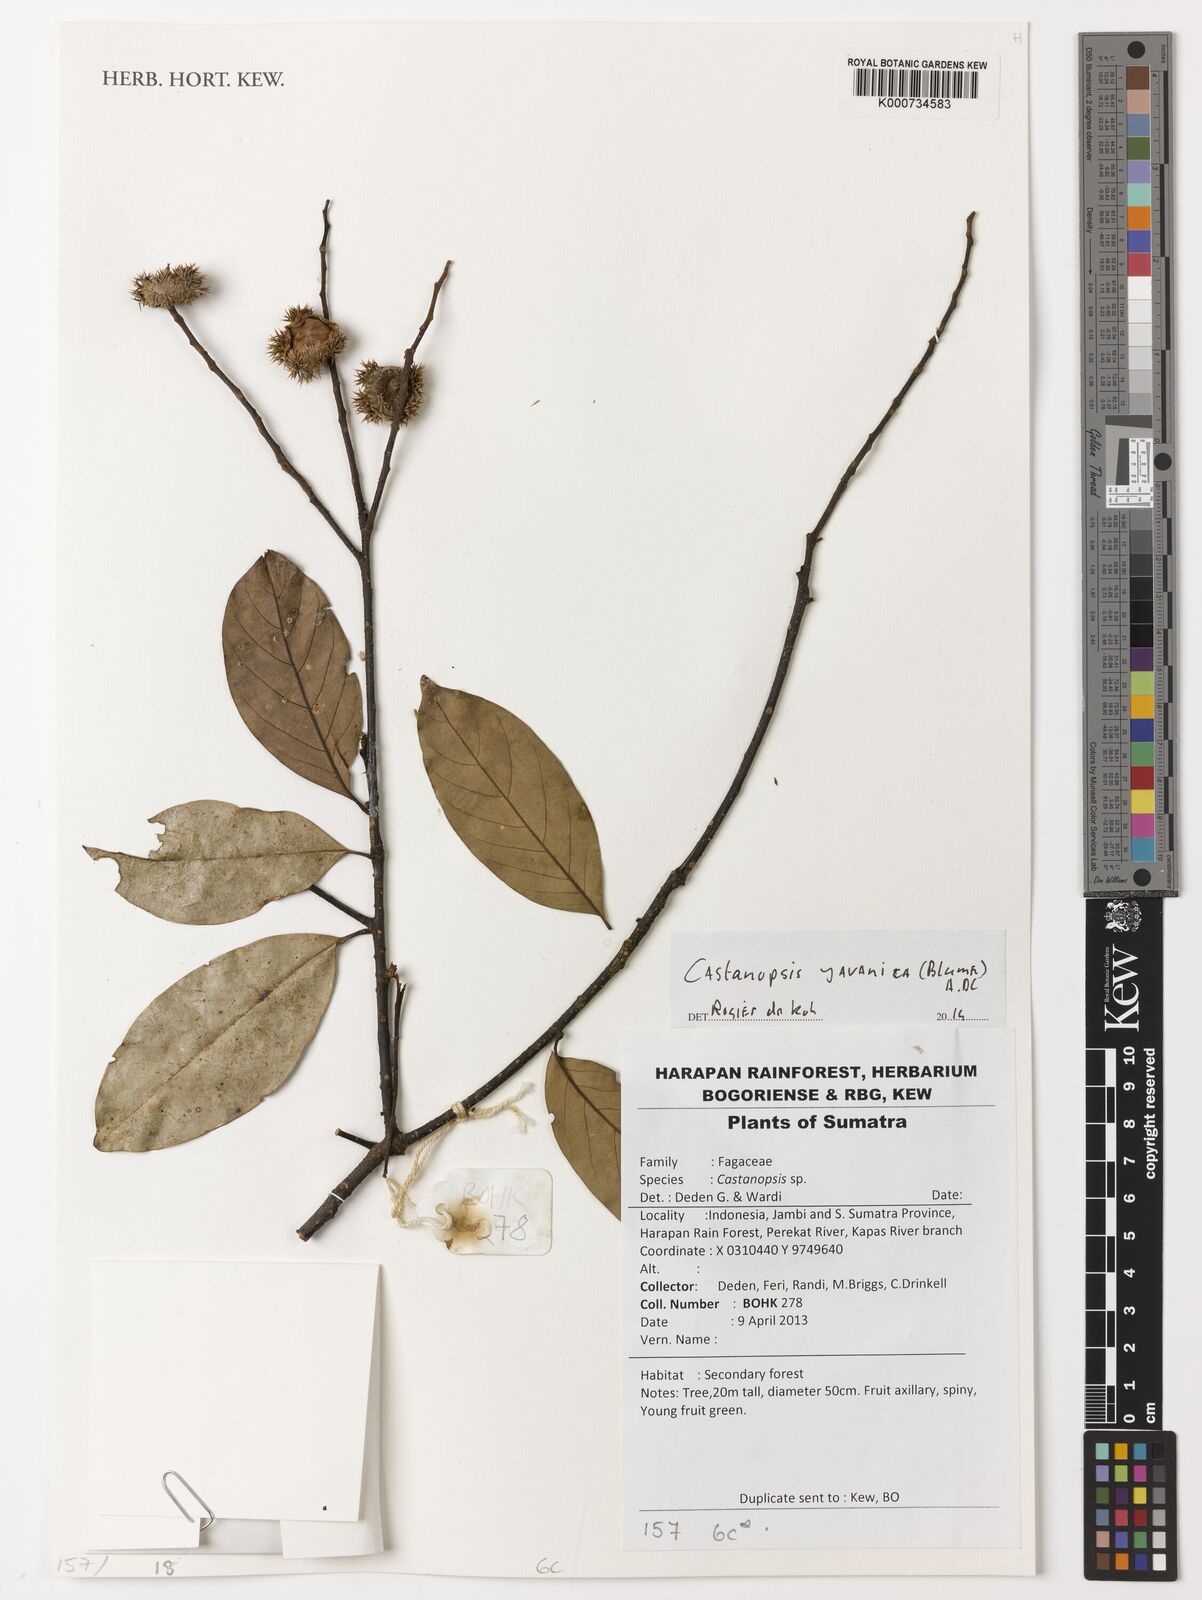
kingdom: Plantae
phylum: Tracheophyta
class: Magnoliopsida
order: Fagales
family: Fagaceae
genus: Castanopsis
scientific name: Castanopsis javanica
